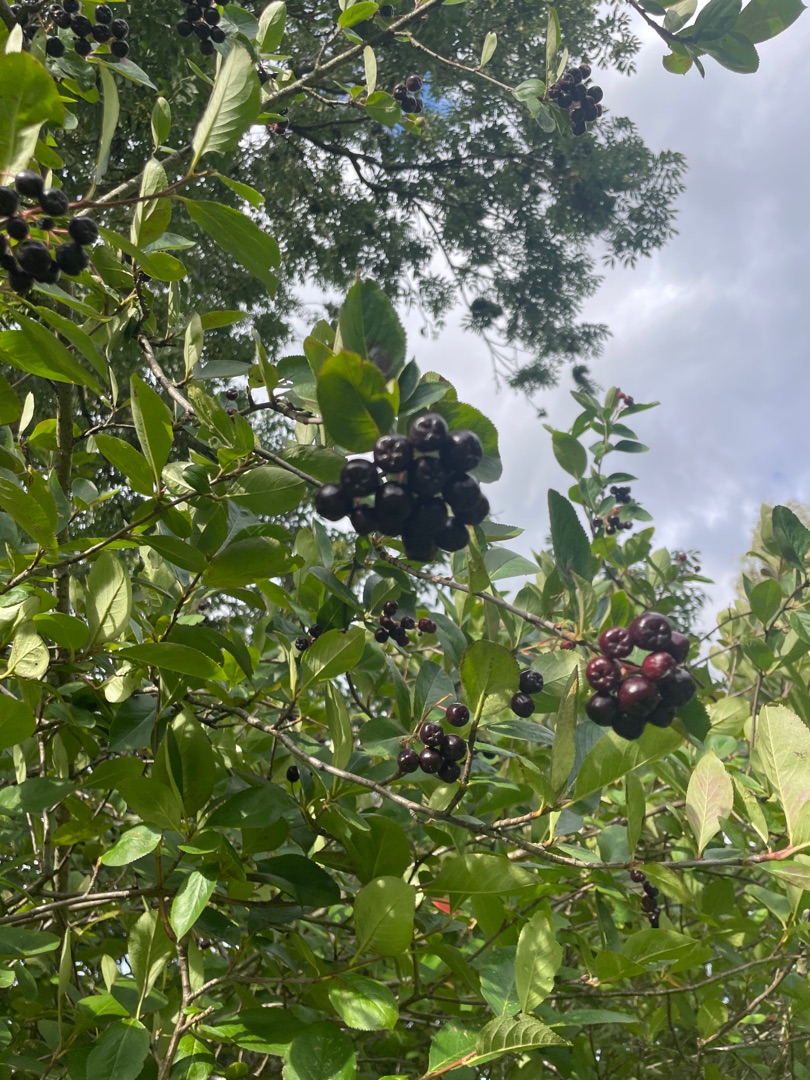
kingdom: Plantae
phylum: Tracheophyta
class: Magnoliopsida
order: Rosales
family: Rosaceae
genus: Aronia
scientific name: Aronia melanocarpa
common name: Sortfrugtet surbær
